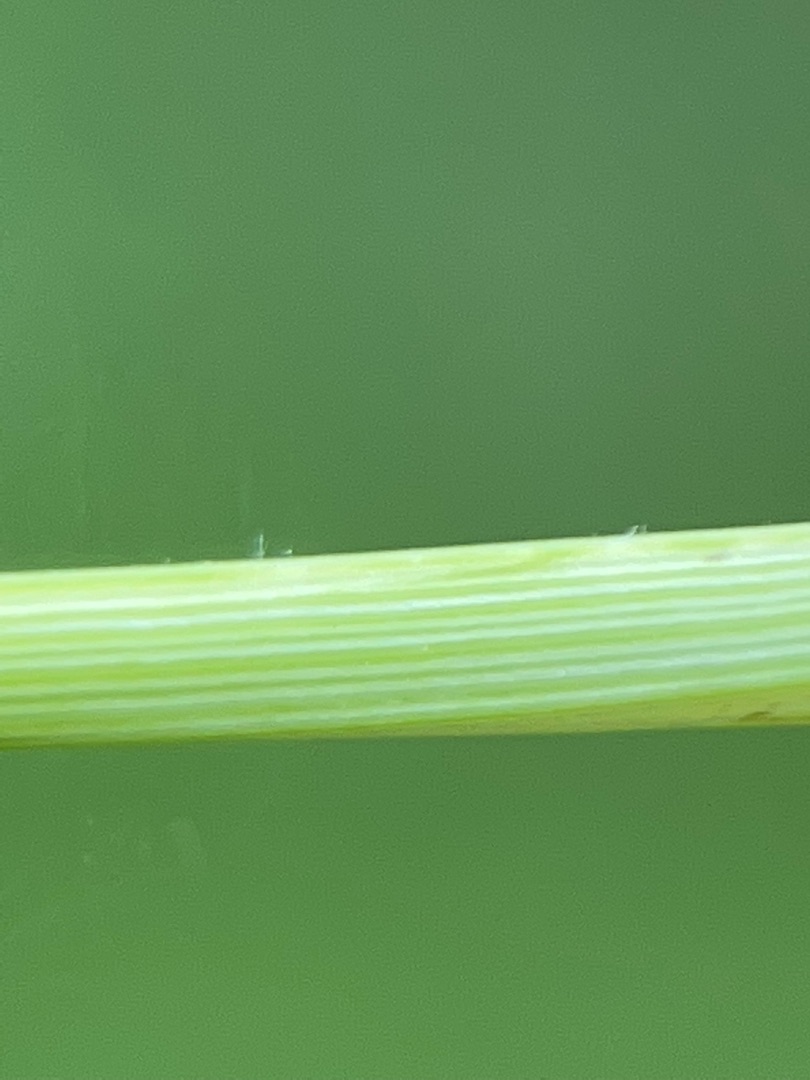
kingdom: Plantae
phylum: Tracheophyta
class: Liliopsida
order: Poales
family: Cyperaceae
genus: Carex
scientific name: Carex pallescens
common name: Bleg star
